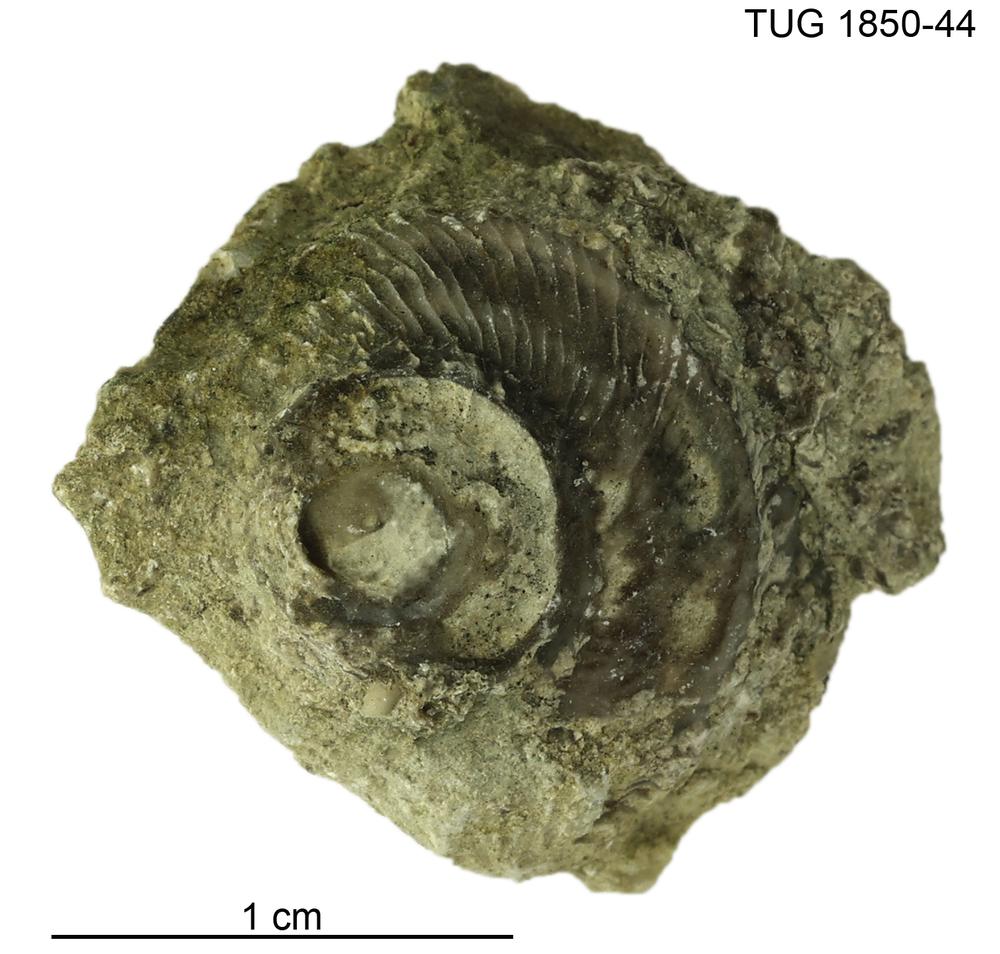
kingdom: Animalia
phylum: Mollusca
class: Gastropoda
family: Euomphalidae
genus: Poleumita
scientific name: Poleumita
